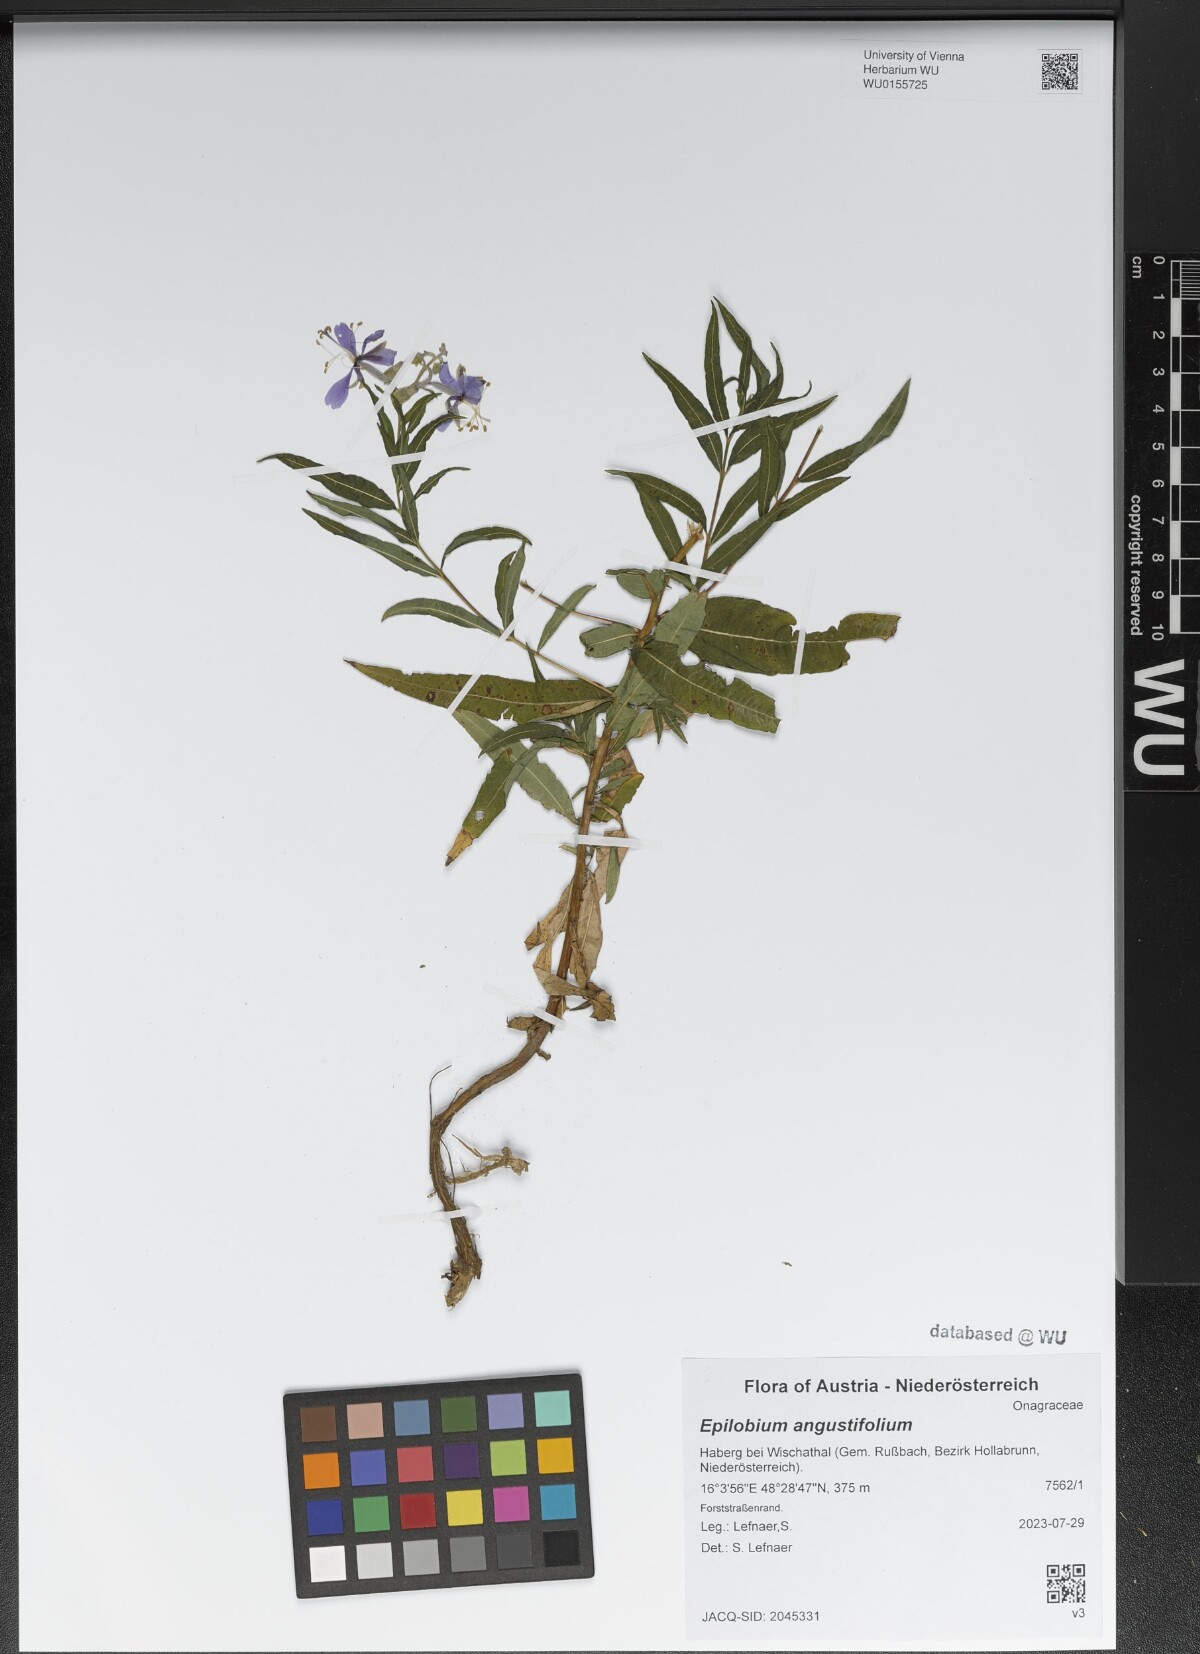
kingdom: Plantae
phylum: Tracheophyta
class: Magnoliopsida
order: Myrtales
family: Onagraceae
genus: Chamaenerion
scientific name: Chamaenerion angustifolium
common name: Fireweed
